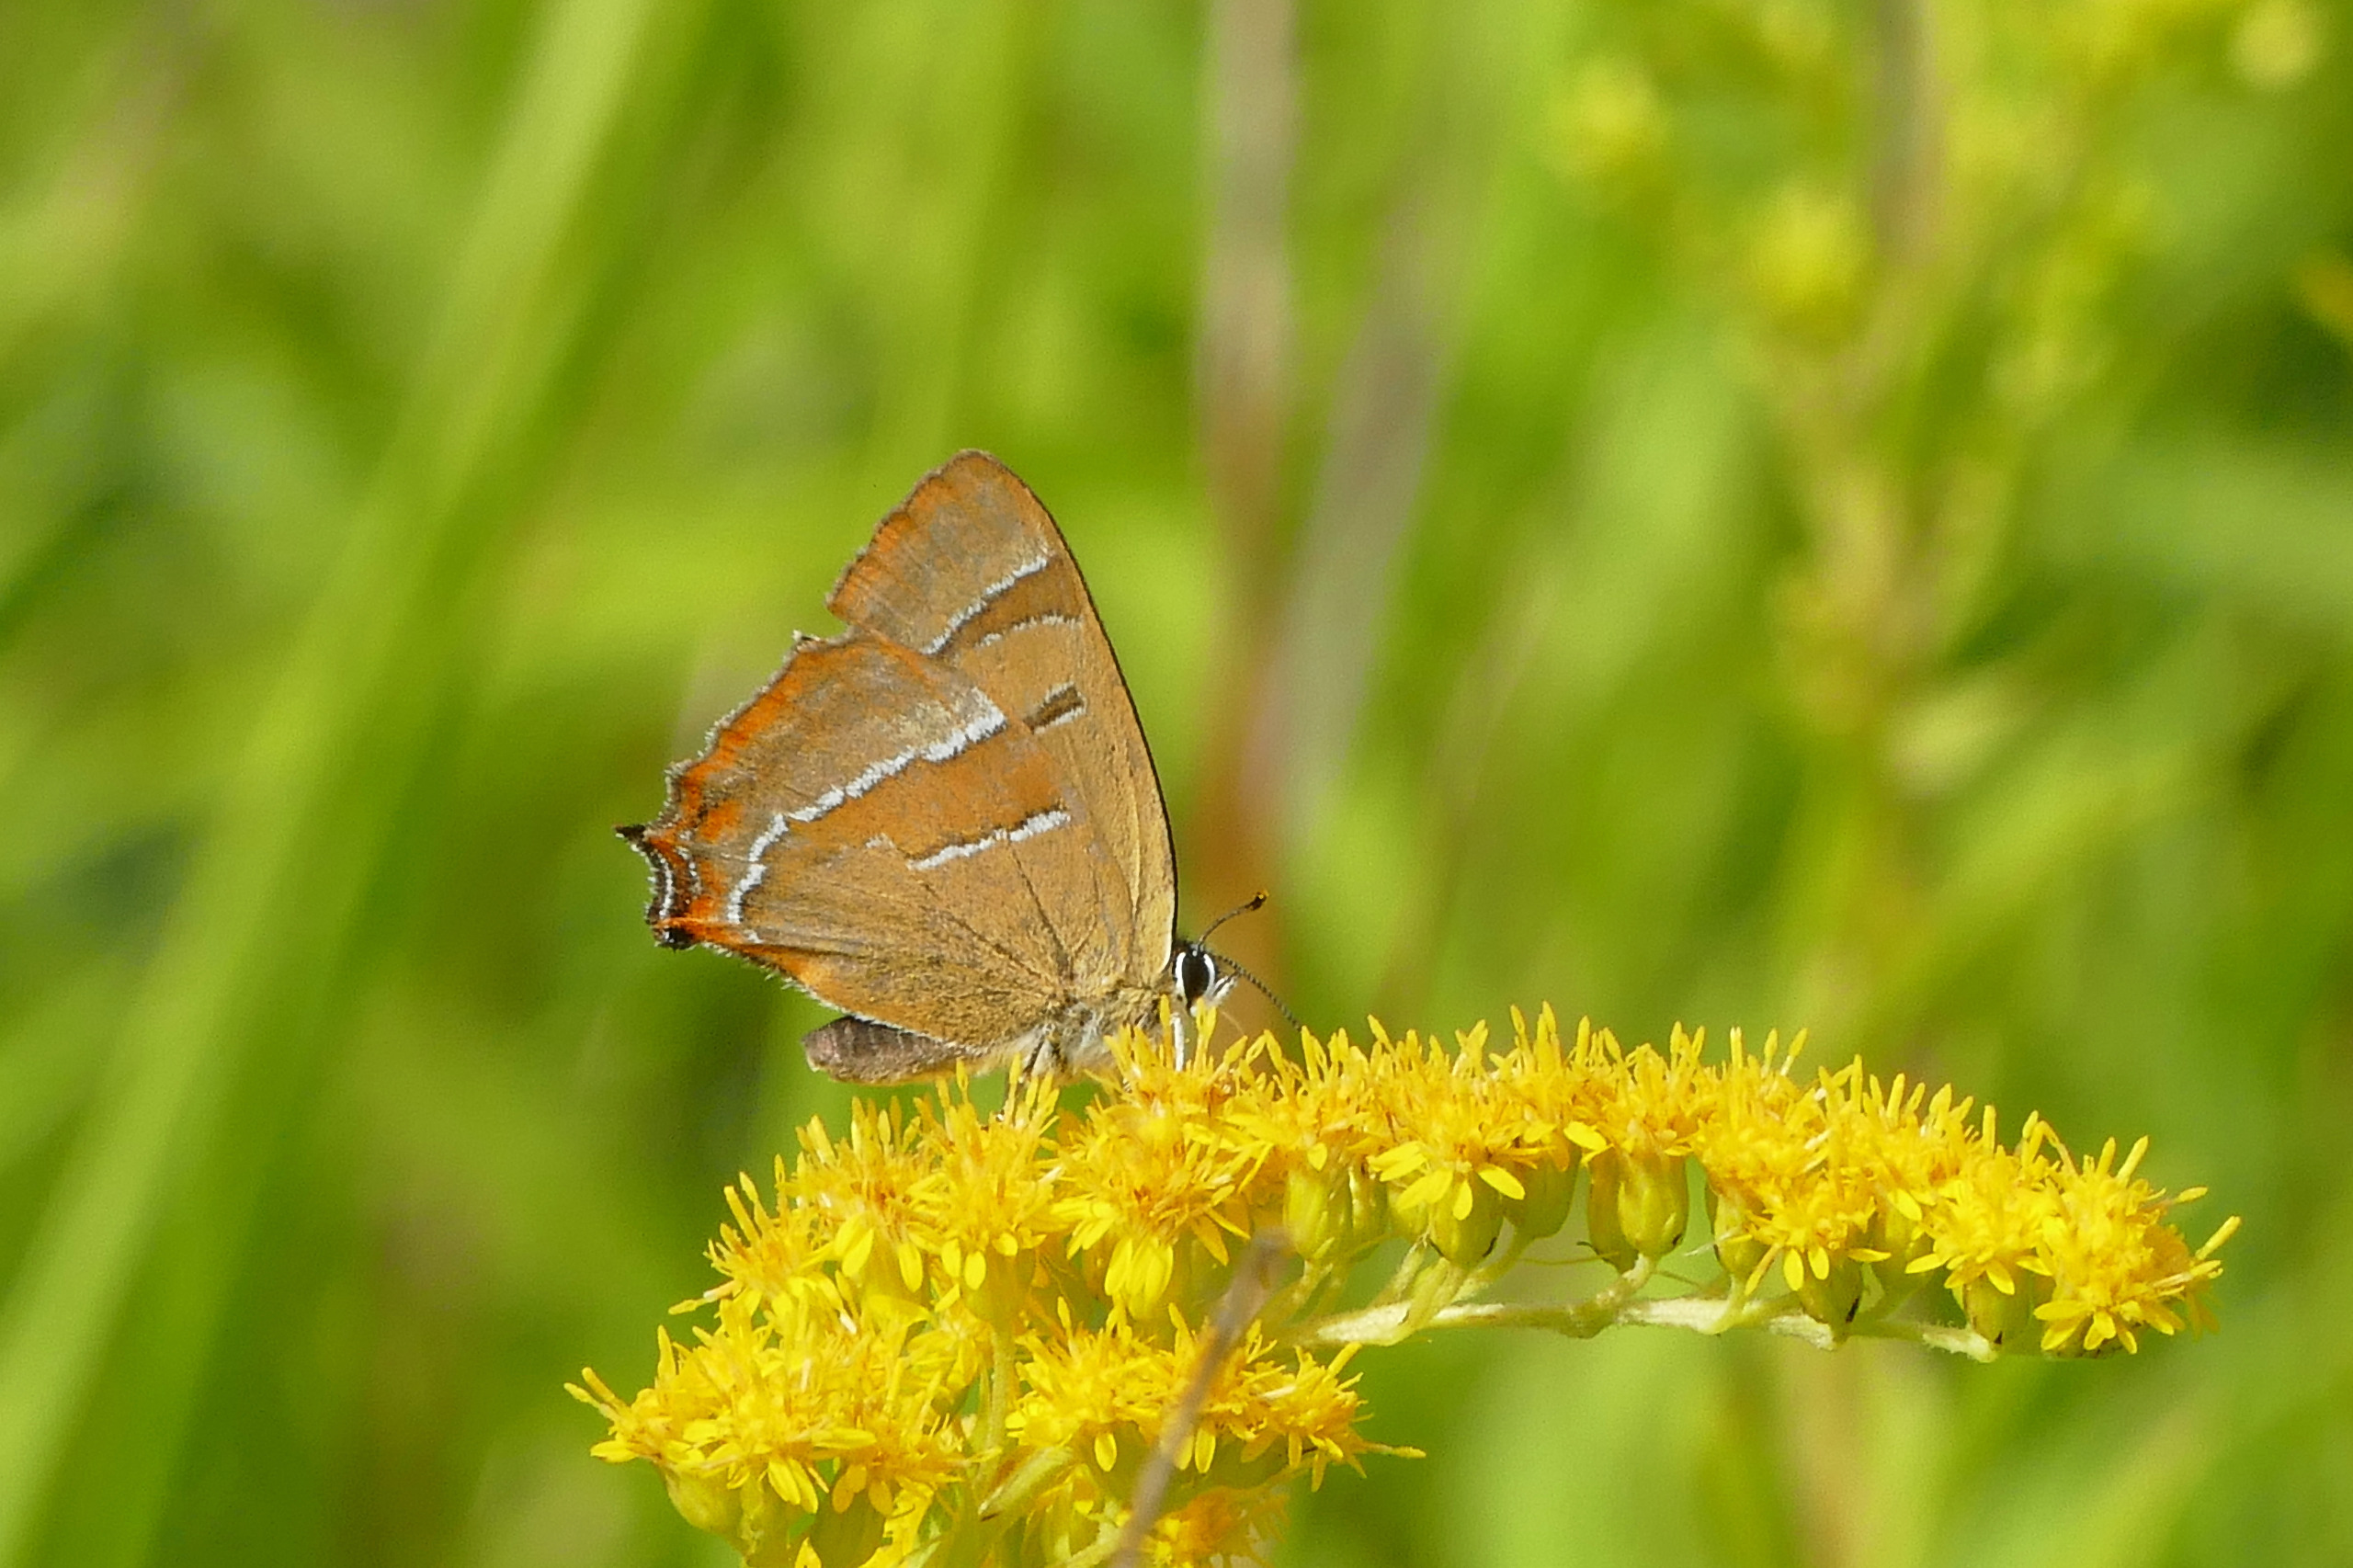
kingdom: Animalia
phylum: Arthropoda
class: Insecta
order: Lepidoptera
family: Lycaenidae
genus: Thecla
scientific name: Thecla betulae
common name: Guldhale
